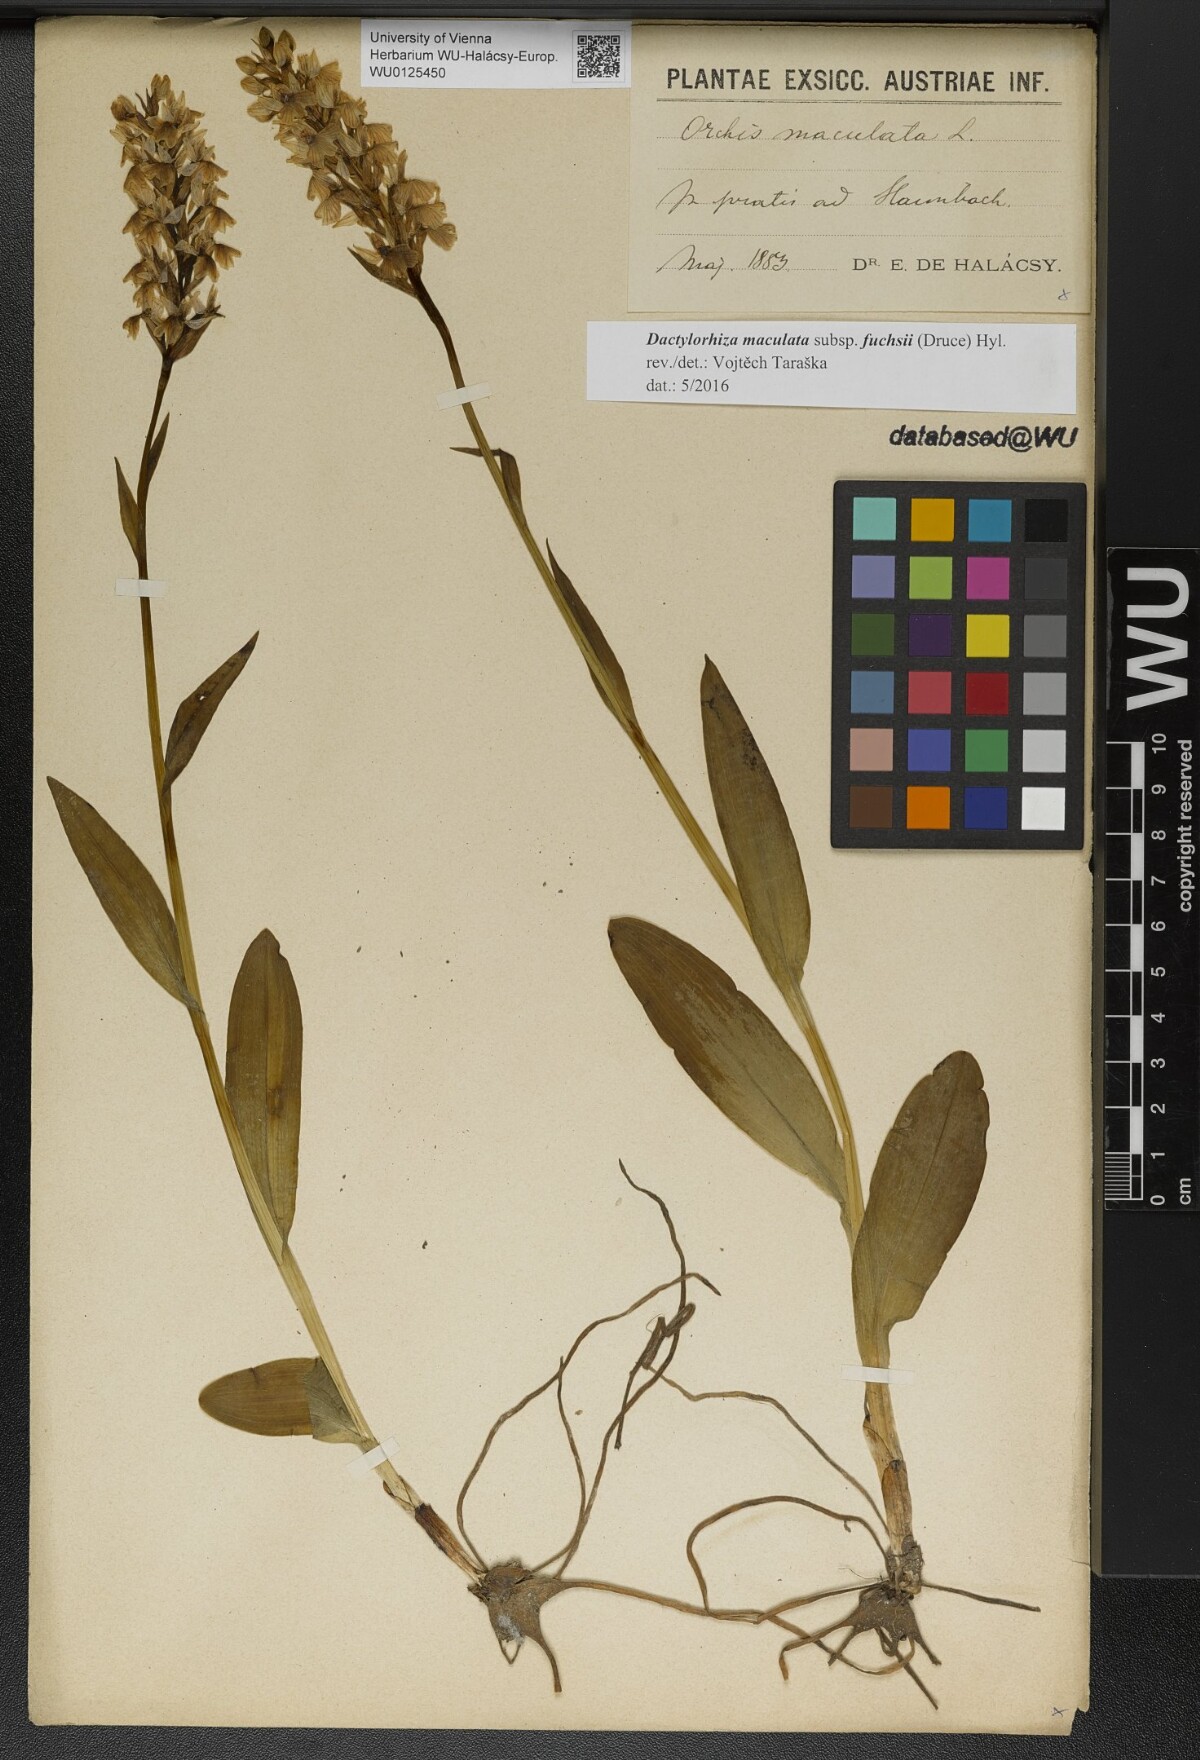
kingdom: Plantae
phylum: Tracheophyta
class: Liliopsida
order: Asparagales
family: Orchidaceae
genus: Dactylorhiza
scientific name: Dactylorhiza maculata
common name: Heath spotted-orchid
